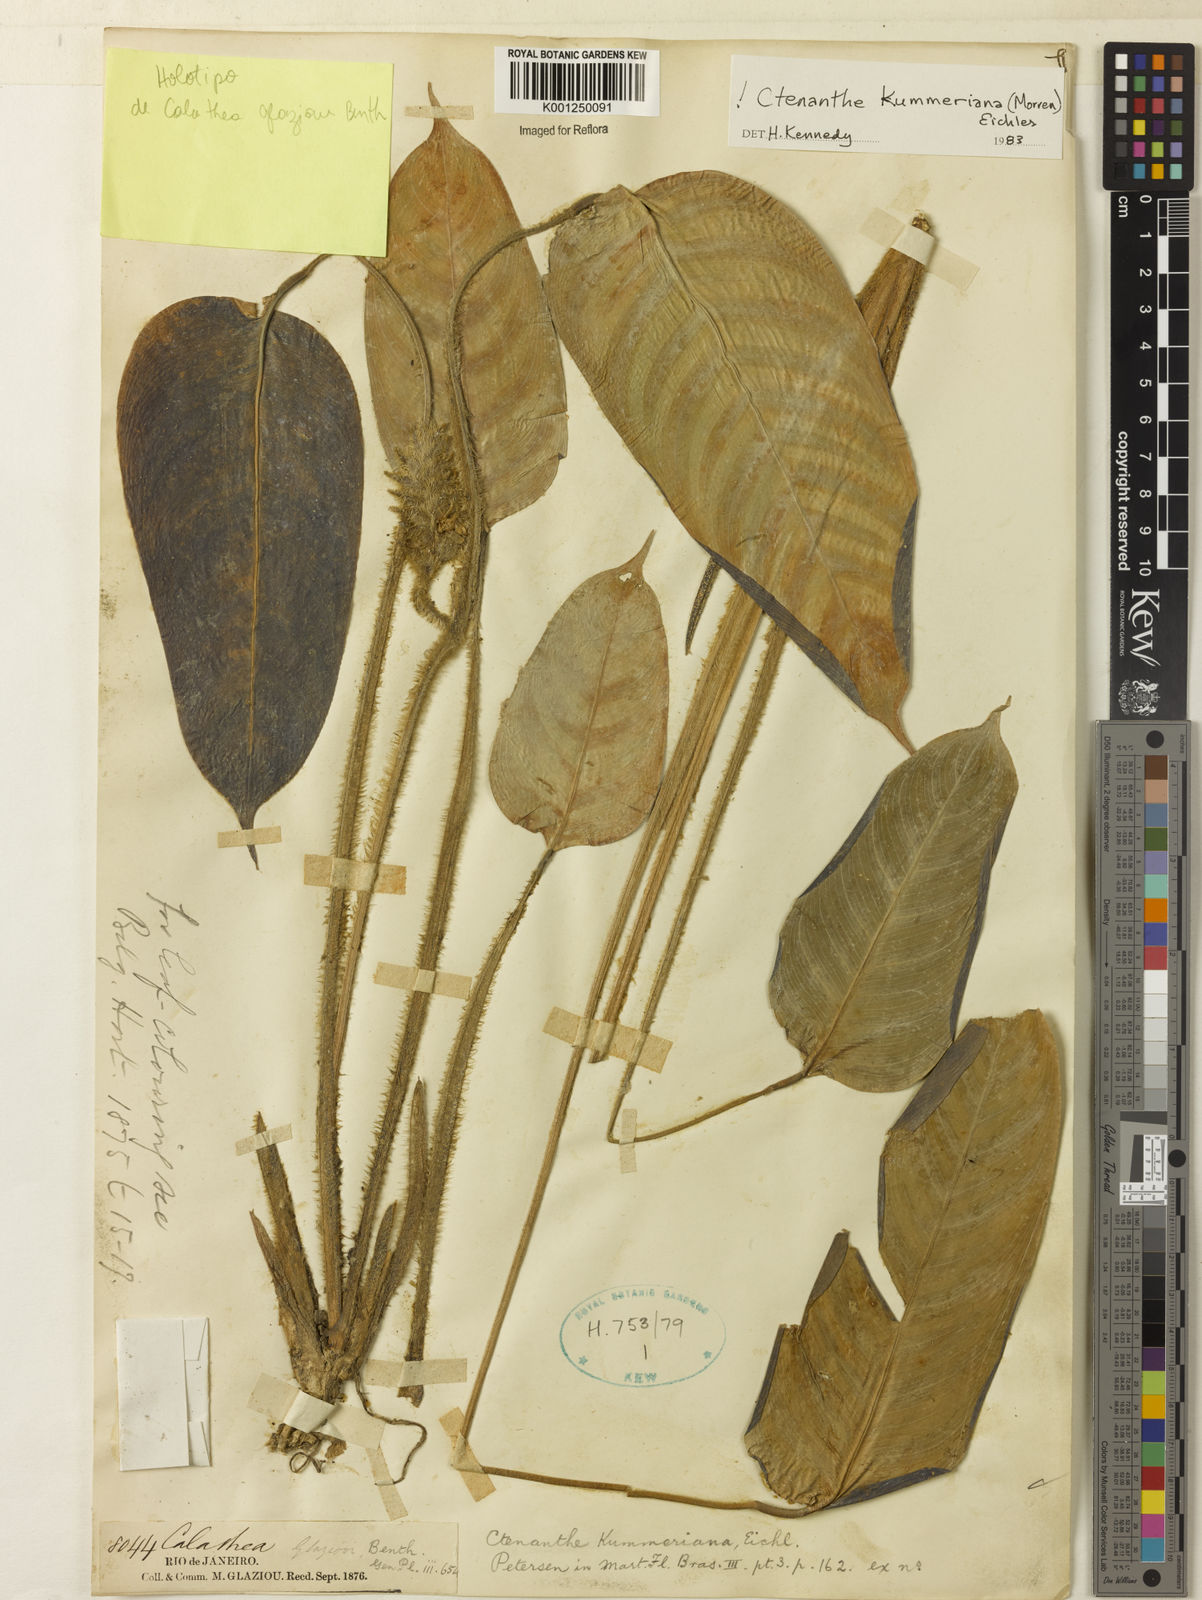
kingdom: Plantae
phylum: Tracheophyta
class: Liliopsida
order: Zingiberales
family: Marantaceae
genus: Ctenanthe
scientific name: Ctenanthe
